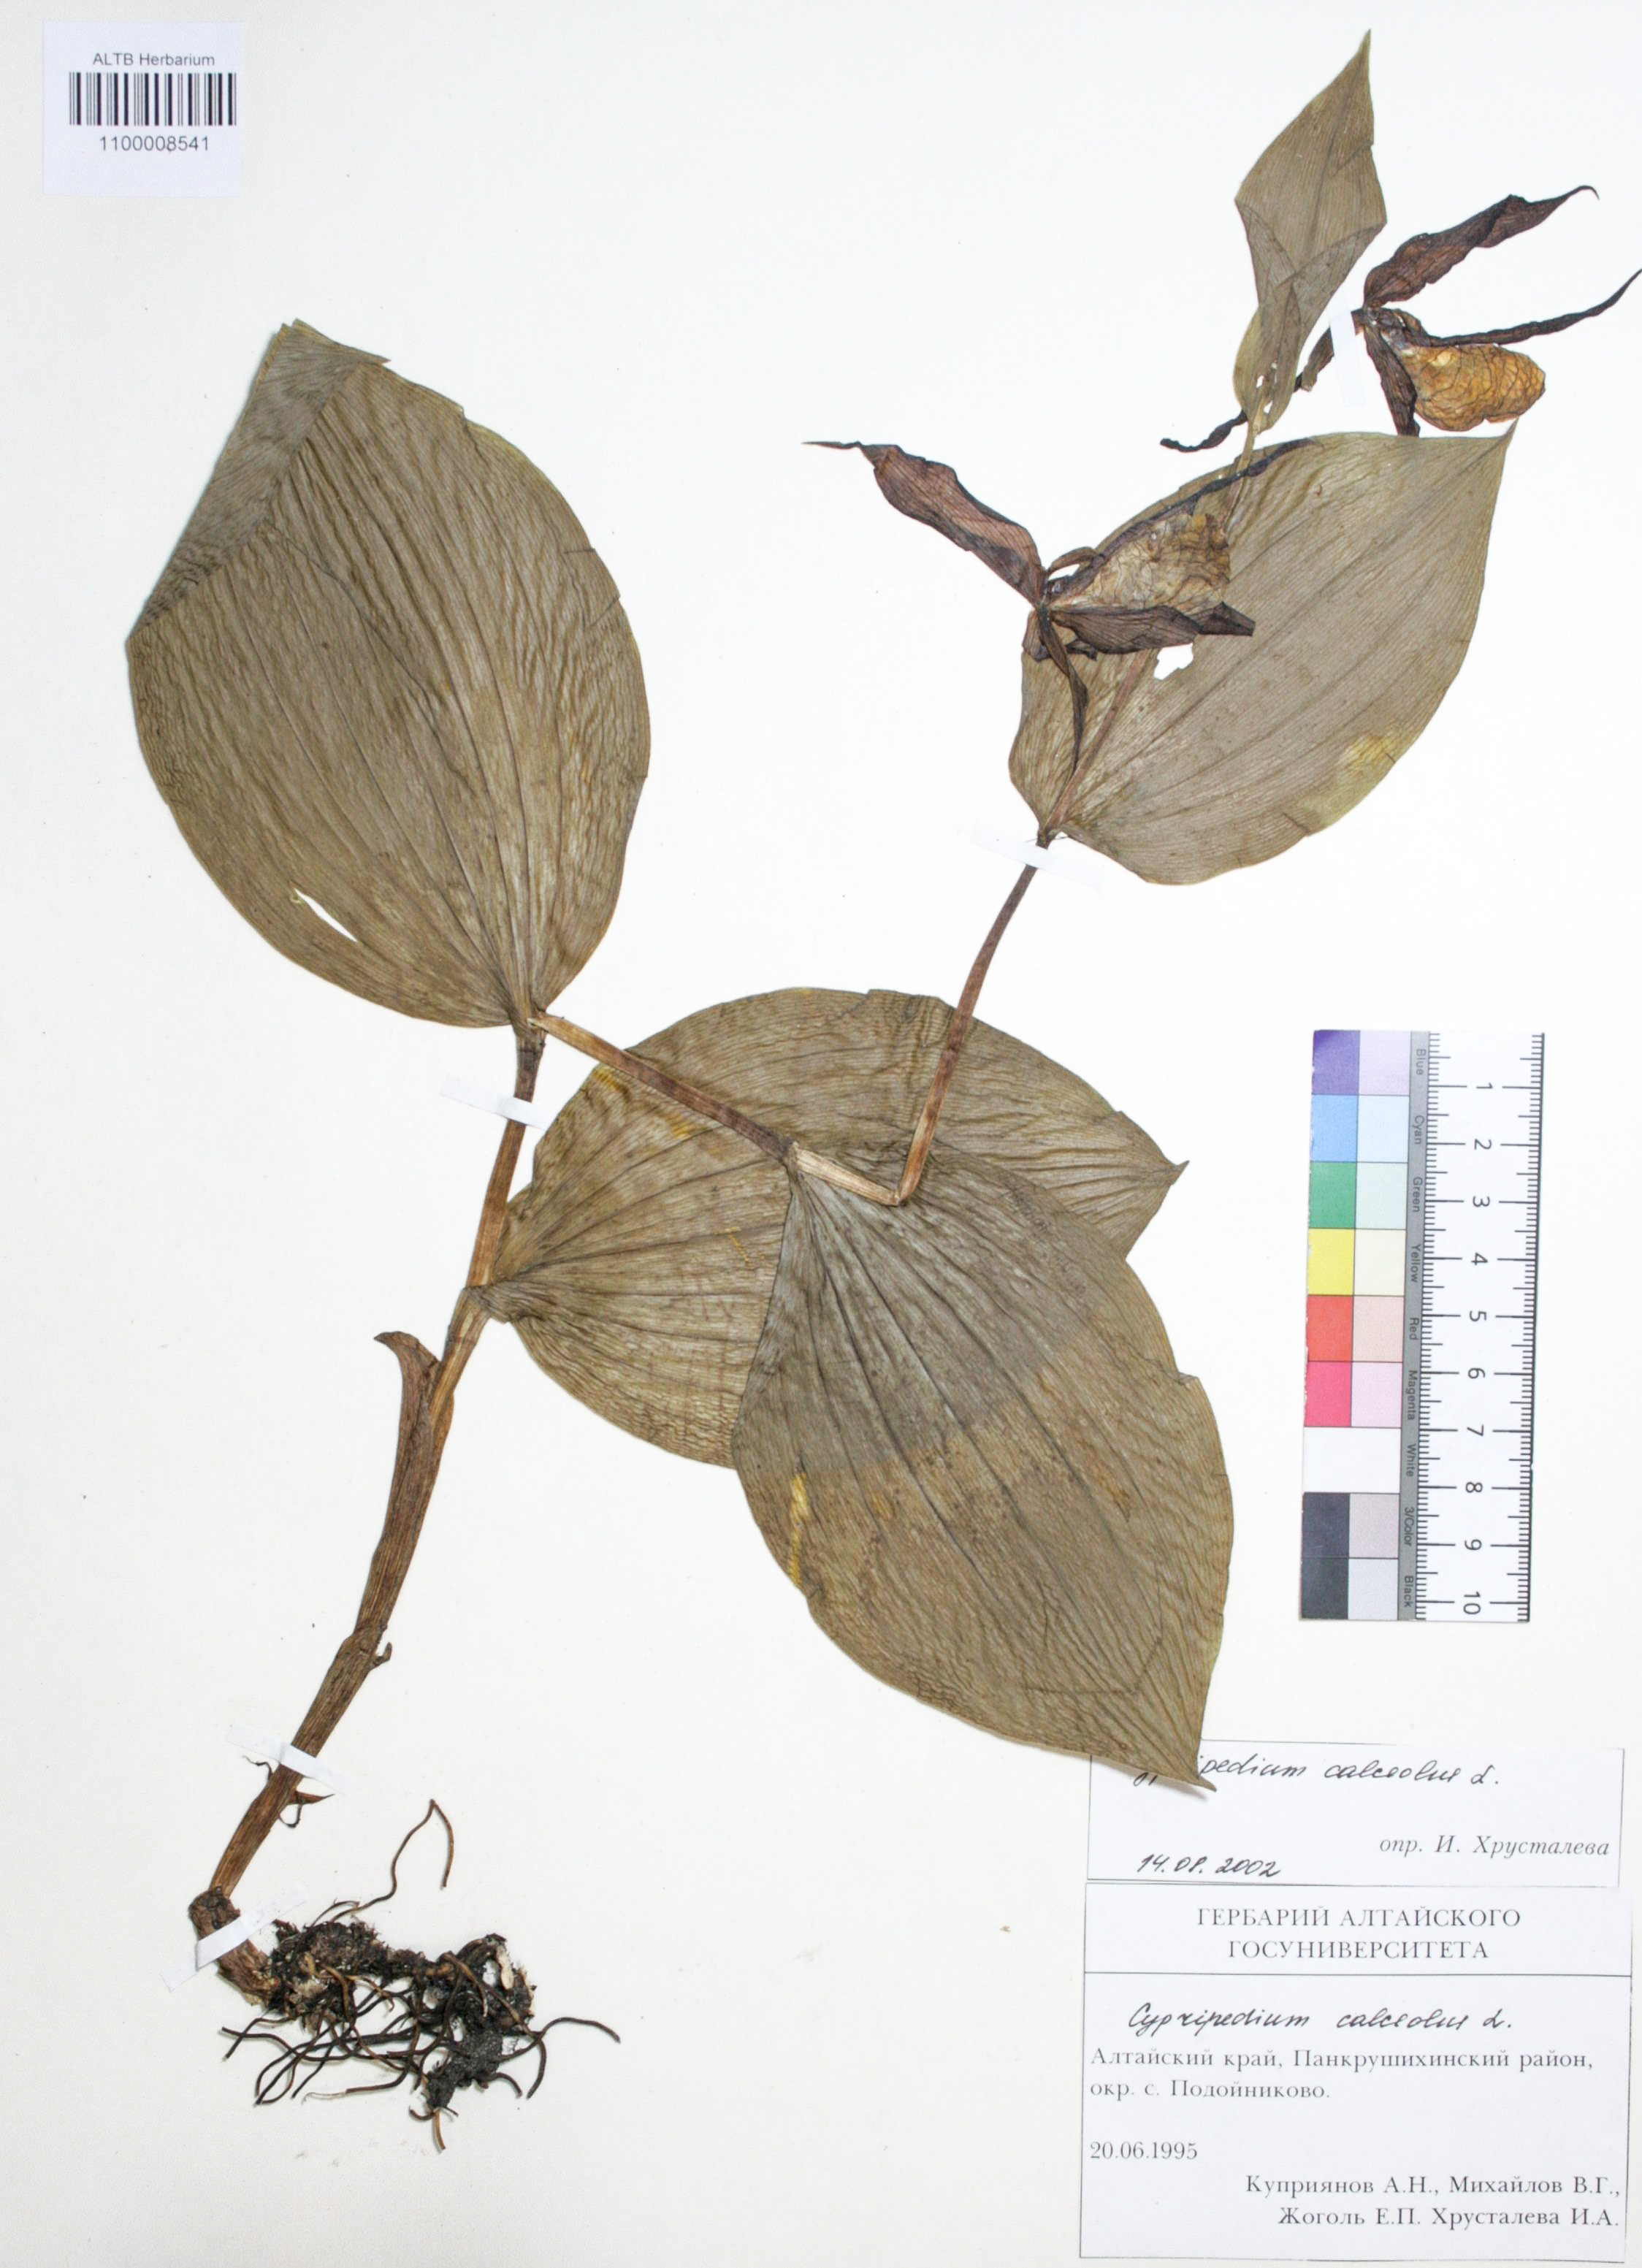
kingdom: Plantae
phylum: Tracheophyta
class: Liliopsida
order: Asparagales
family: Orchidaceae
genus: Cypripedium
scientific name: Cypripedium guttatum
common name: Pink lady slipper
